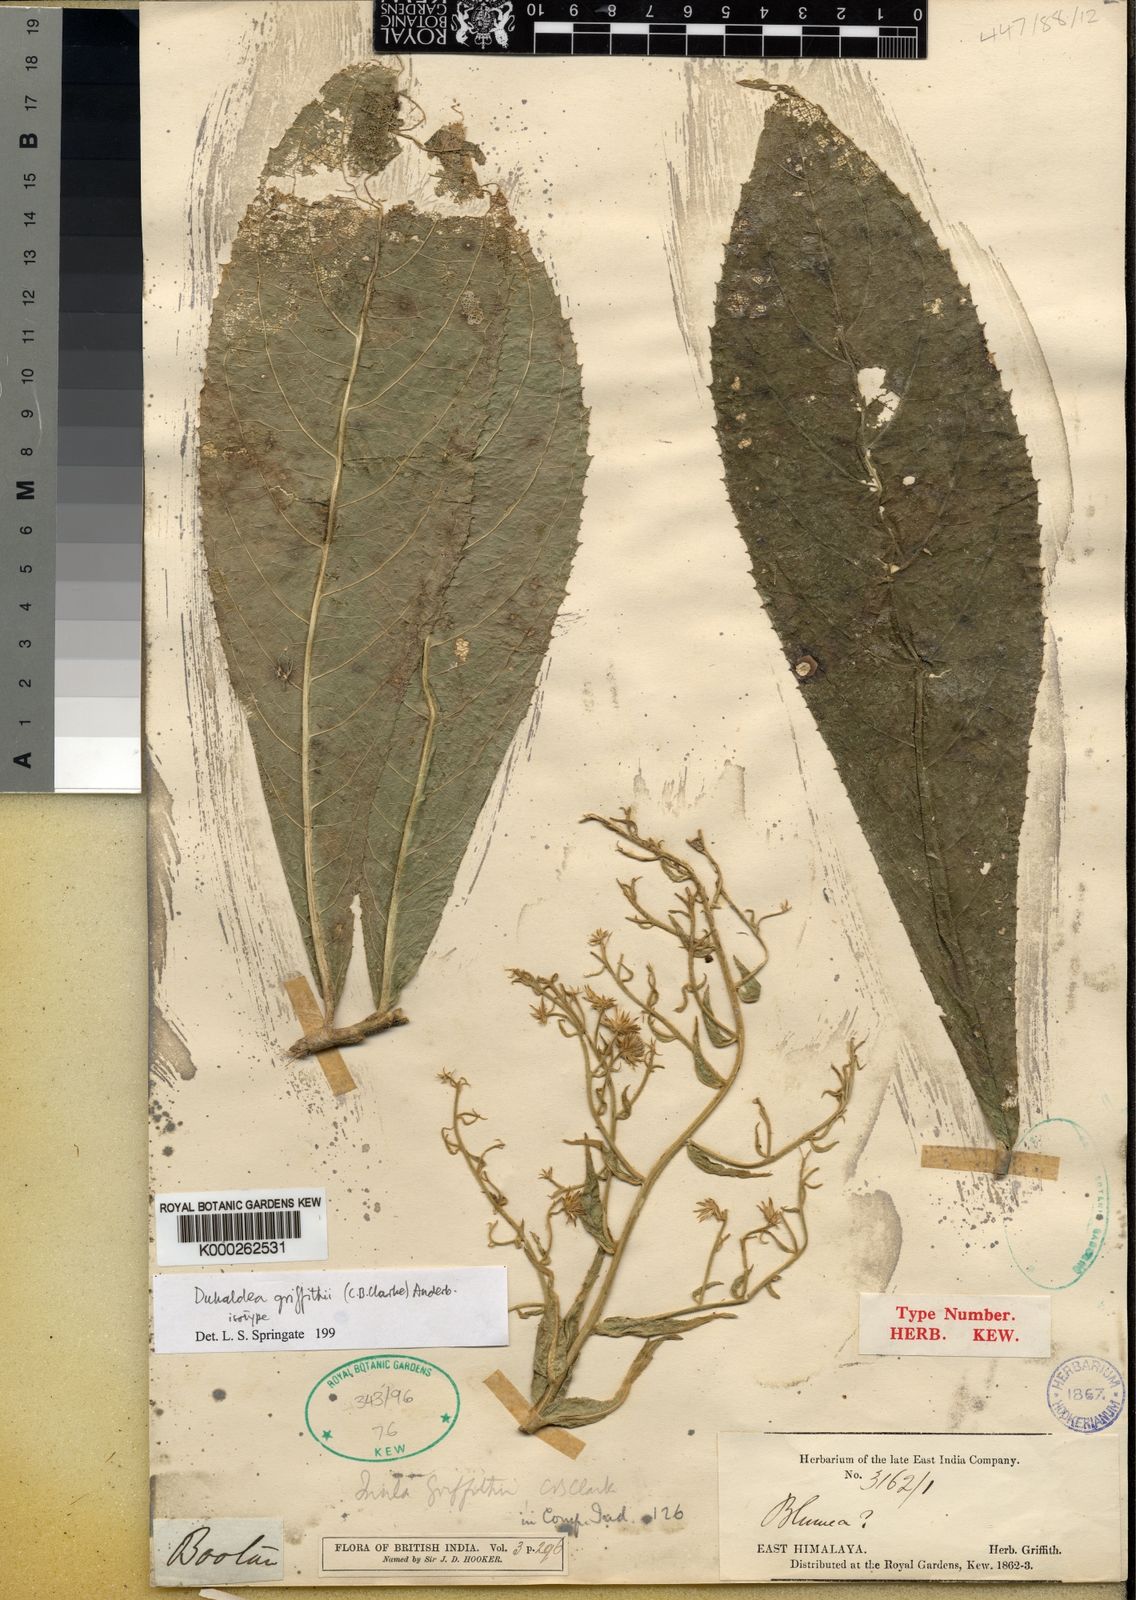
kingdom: Plantae
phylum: Tracheophyta
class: Magnoliopsida
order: Asterales
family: Asteraceae
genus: Duhaldea
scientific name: Duhaldea griffithii
